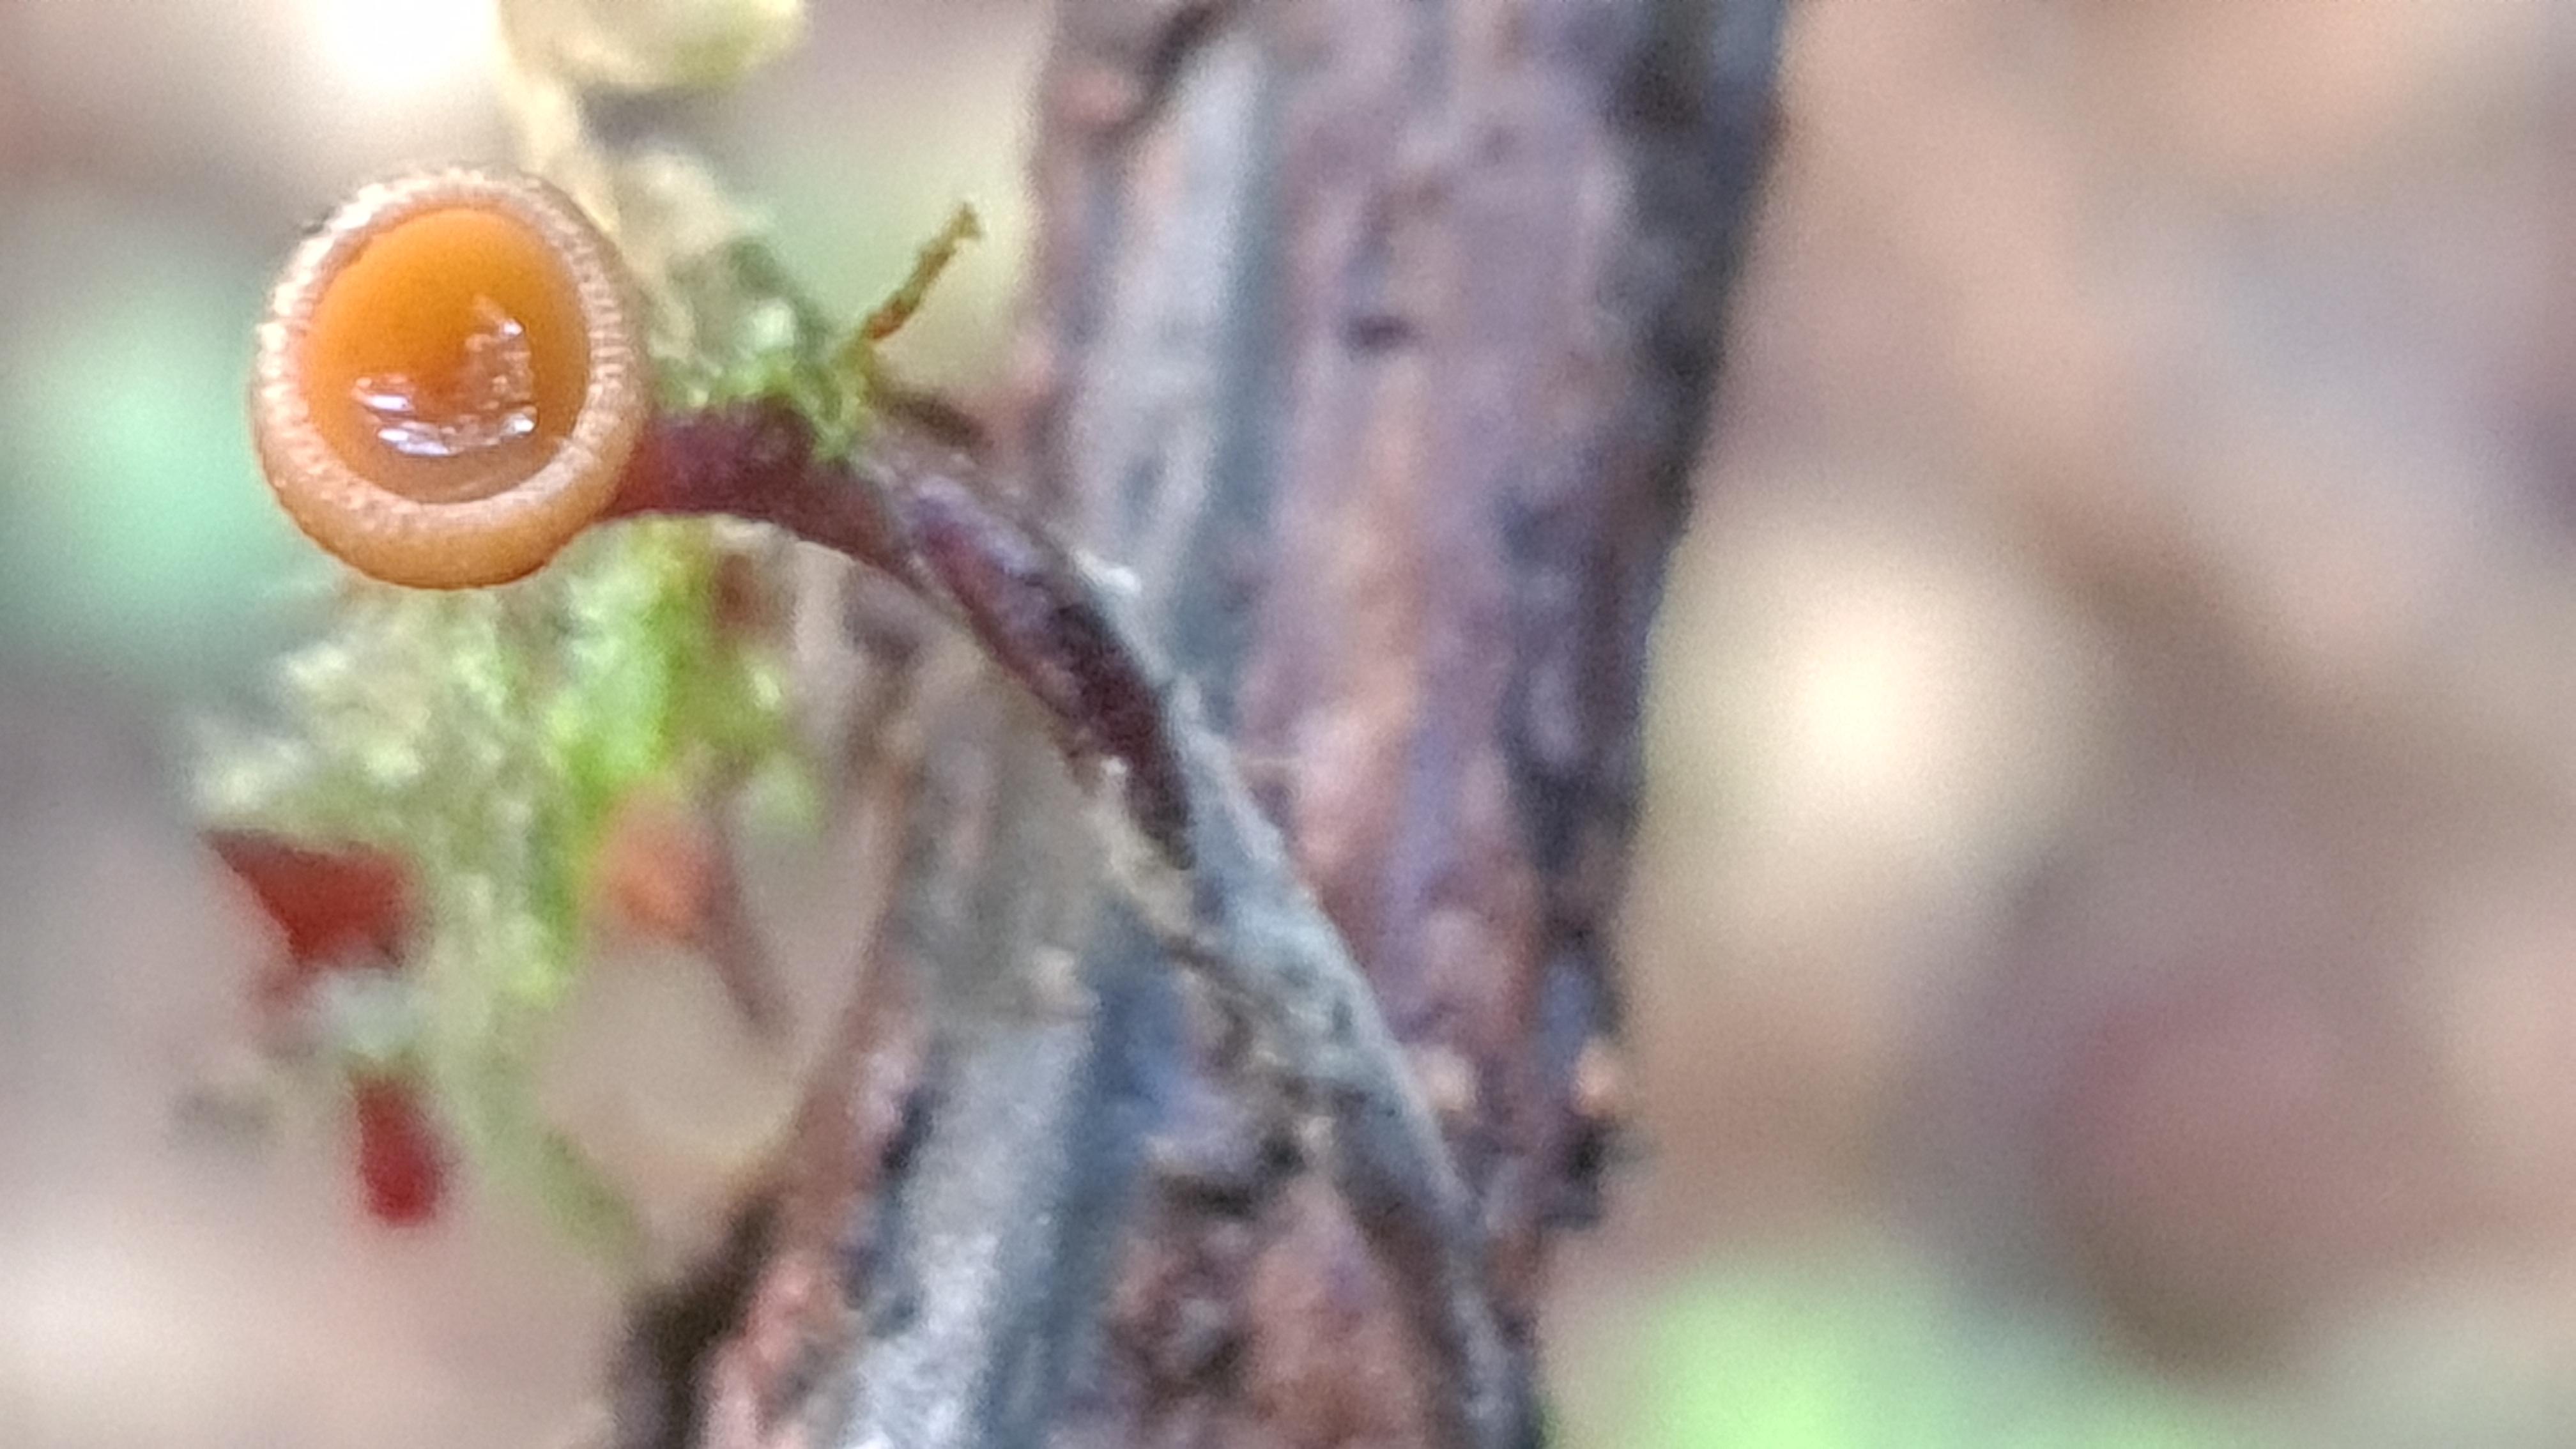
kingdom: Fungi
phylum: Ascomycota
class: Leotiomycetes
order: Helotiales
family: Rutstroemiaceae
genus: Rutstroemia
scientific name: Rutstroemia firma
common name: gren-brunskive
